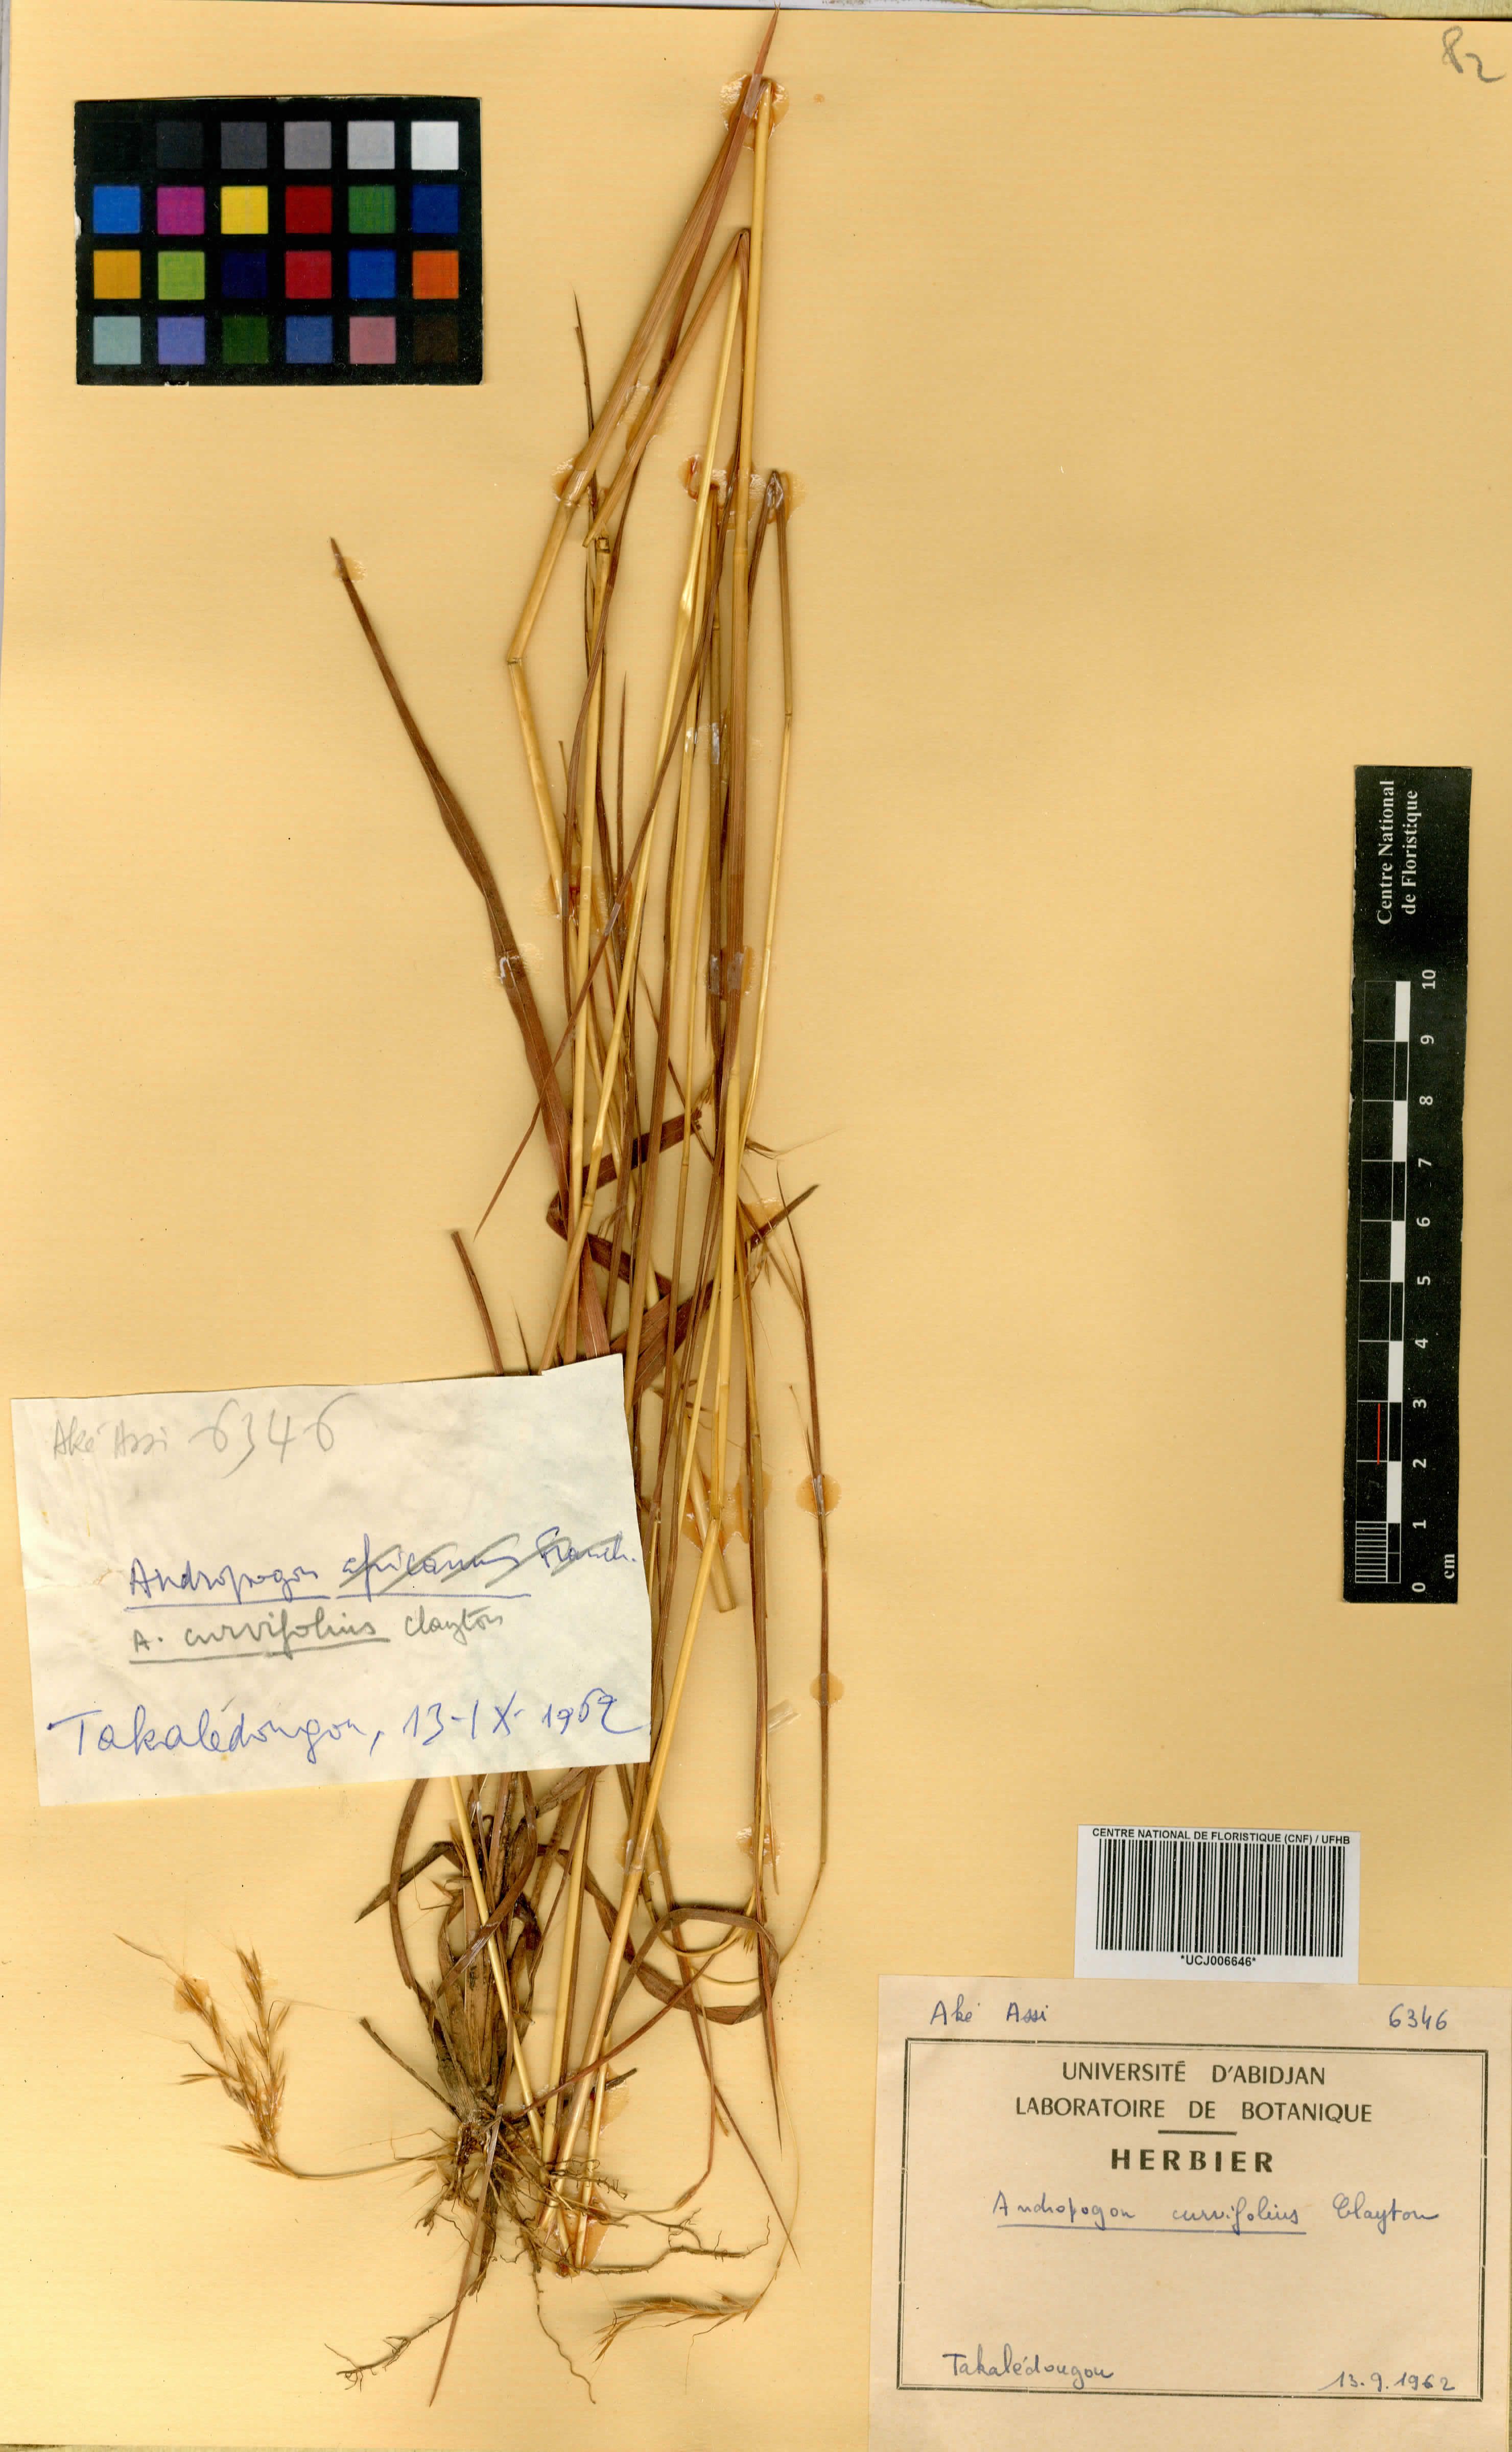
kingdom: Plantae
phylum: Tracheophyta
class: Liliopsida
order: Poales
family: Poaceae
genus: Andropogon
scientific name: Andropogon curvifolius
